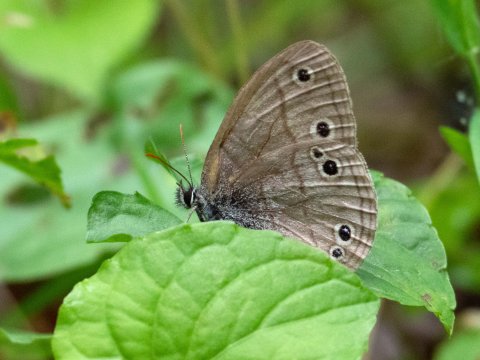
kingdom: Animalia
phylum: Arthropoda
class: Insecta
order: Lepidoptera
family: Nymphalidae
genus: Euptychia
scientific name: Euptychia cymela
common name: Little Wood Satyr
